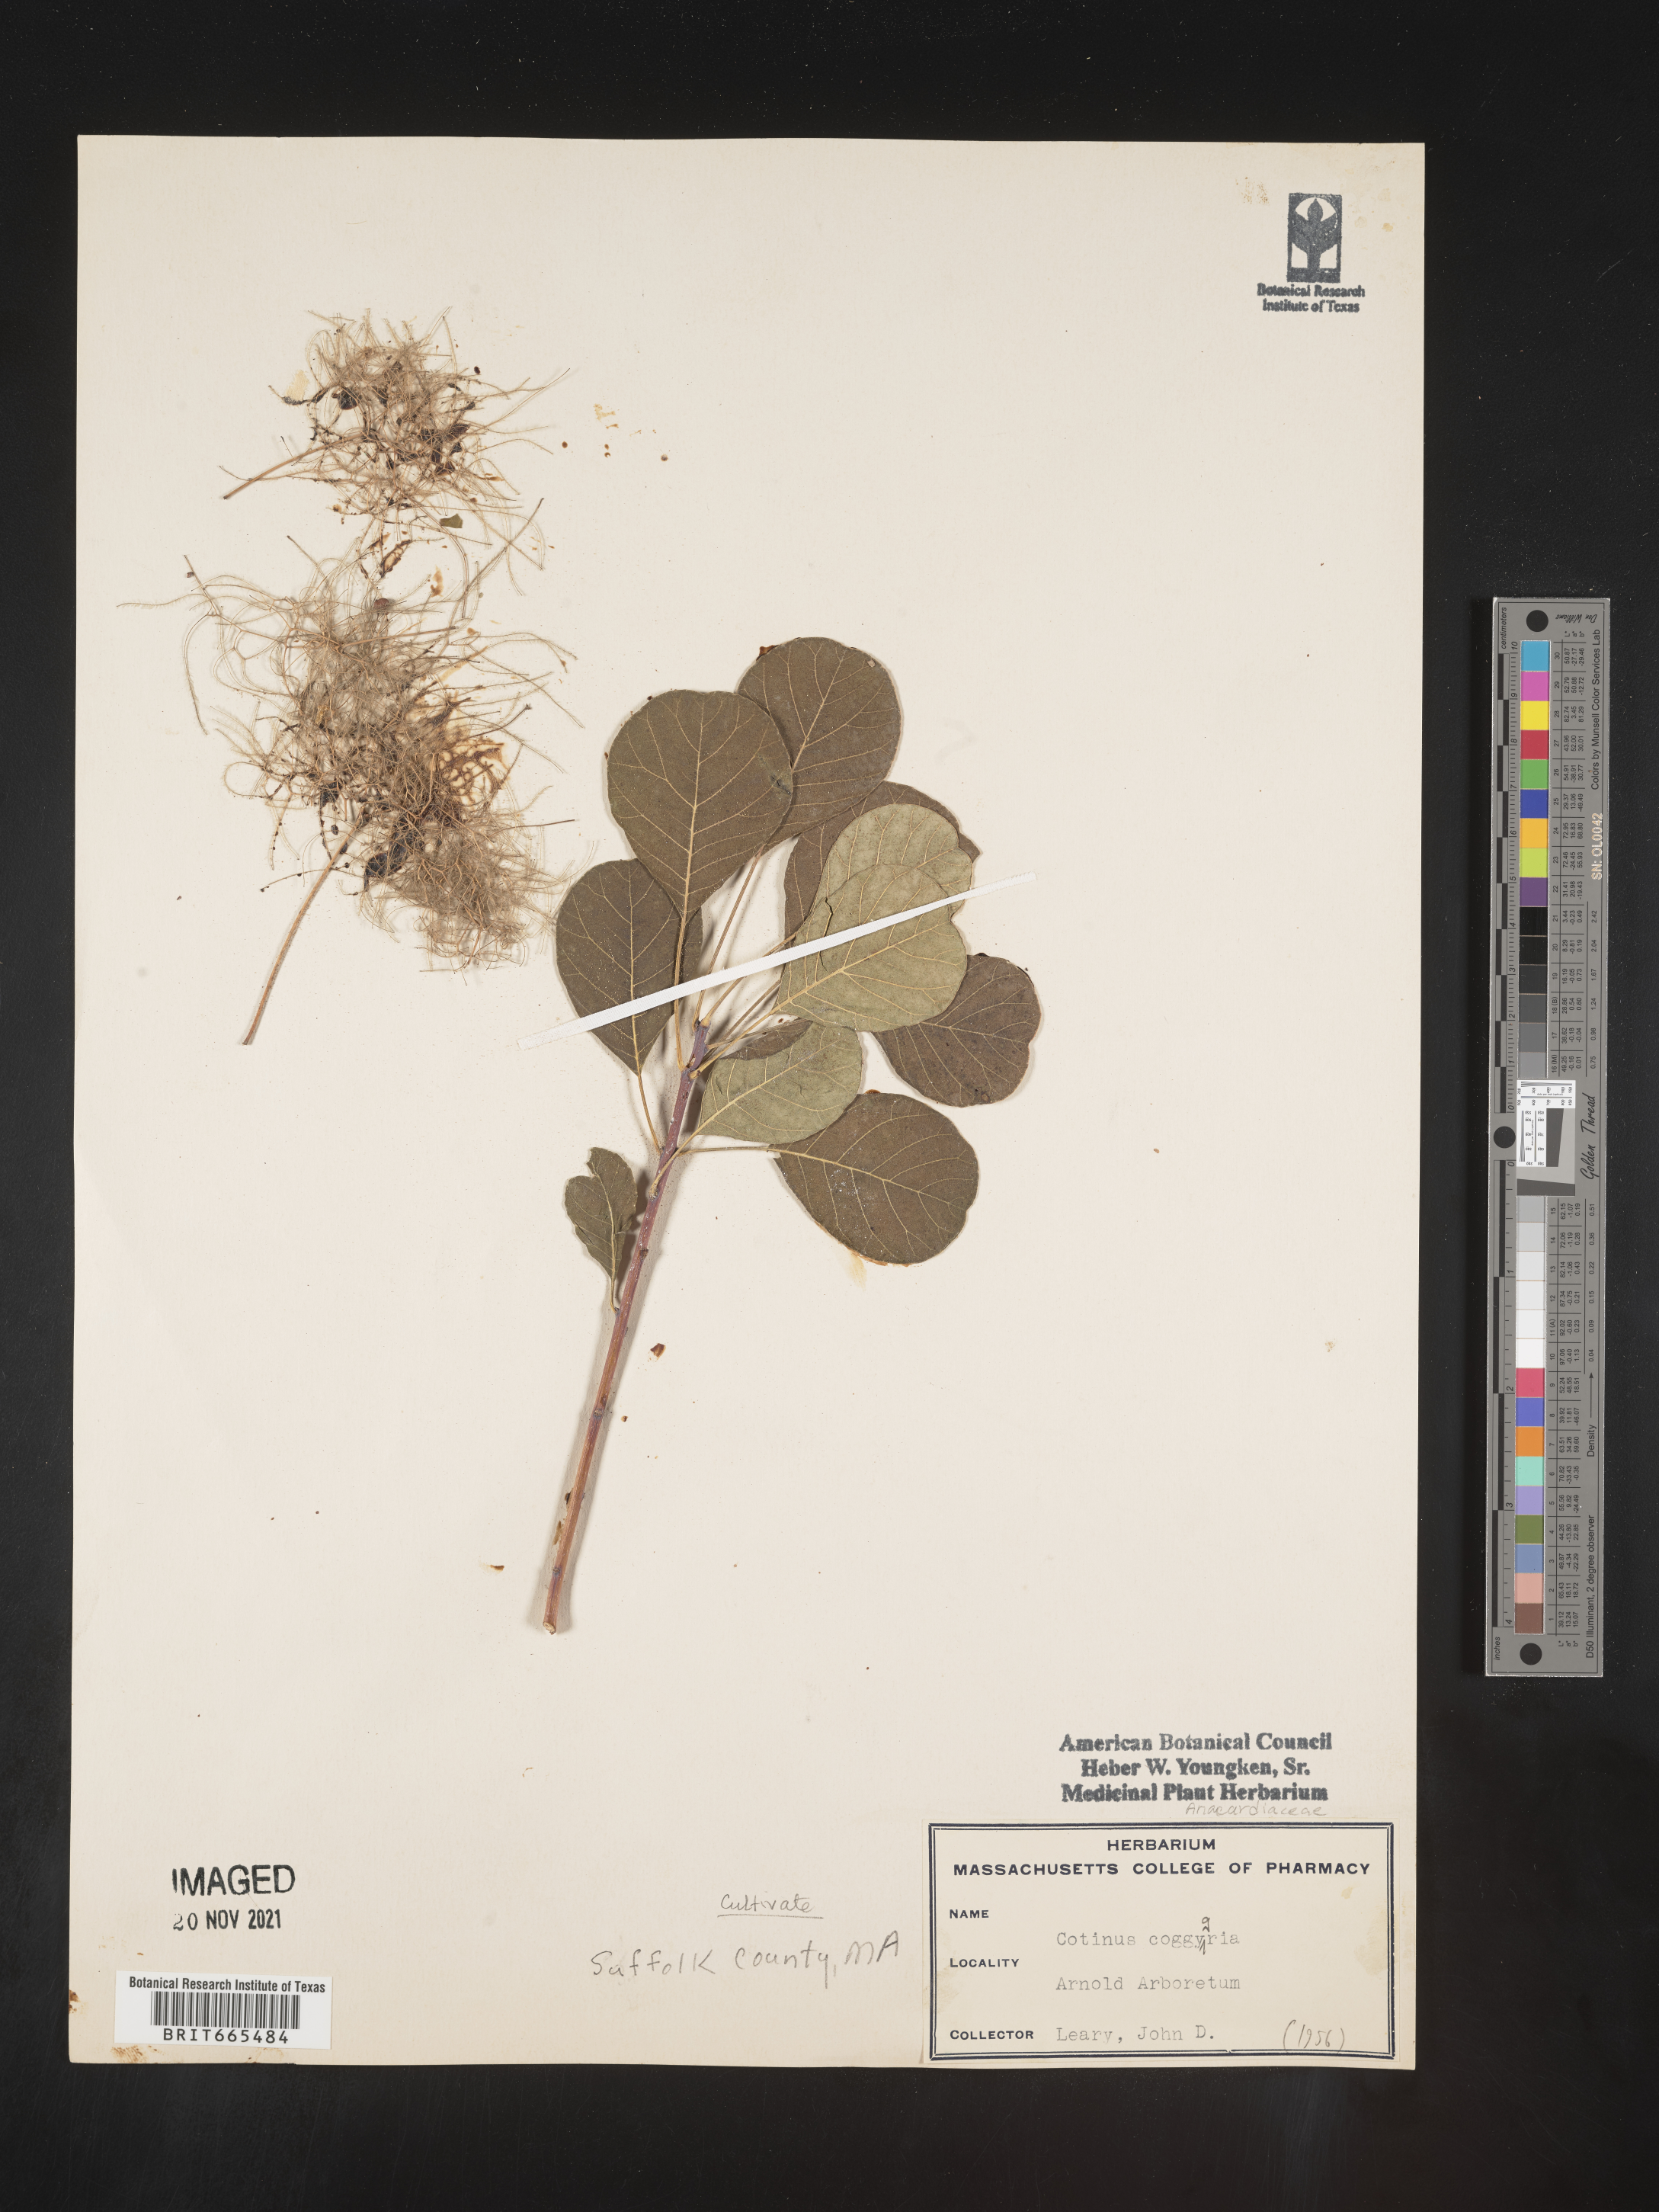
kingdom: Plantae
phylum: Tracheophyta
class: Magnoliopsida
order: Sapindales
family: Anacardiaceae
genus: Cotinus
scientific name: Cotinus
